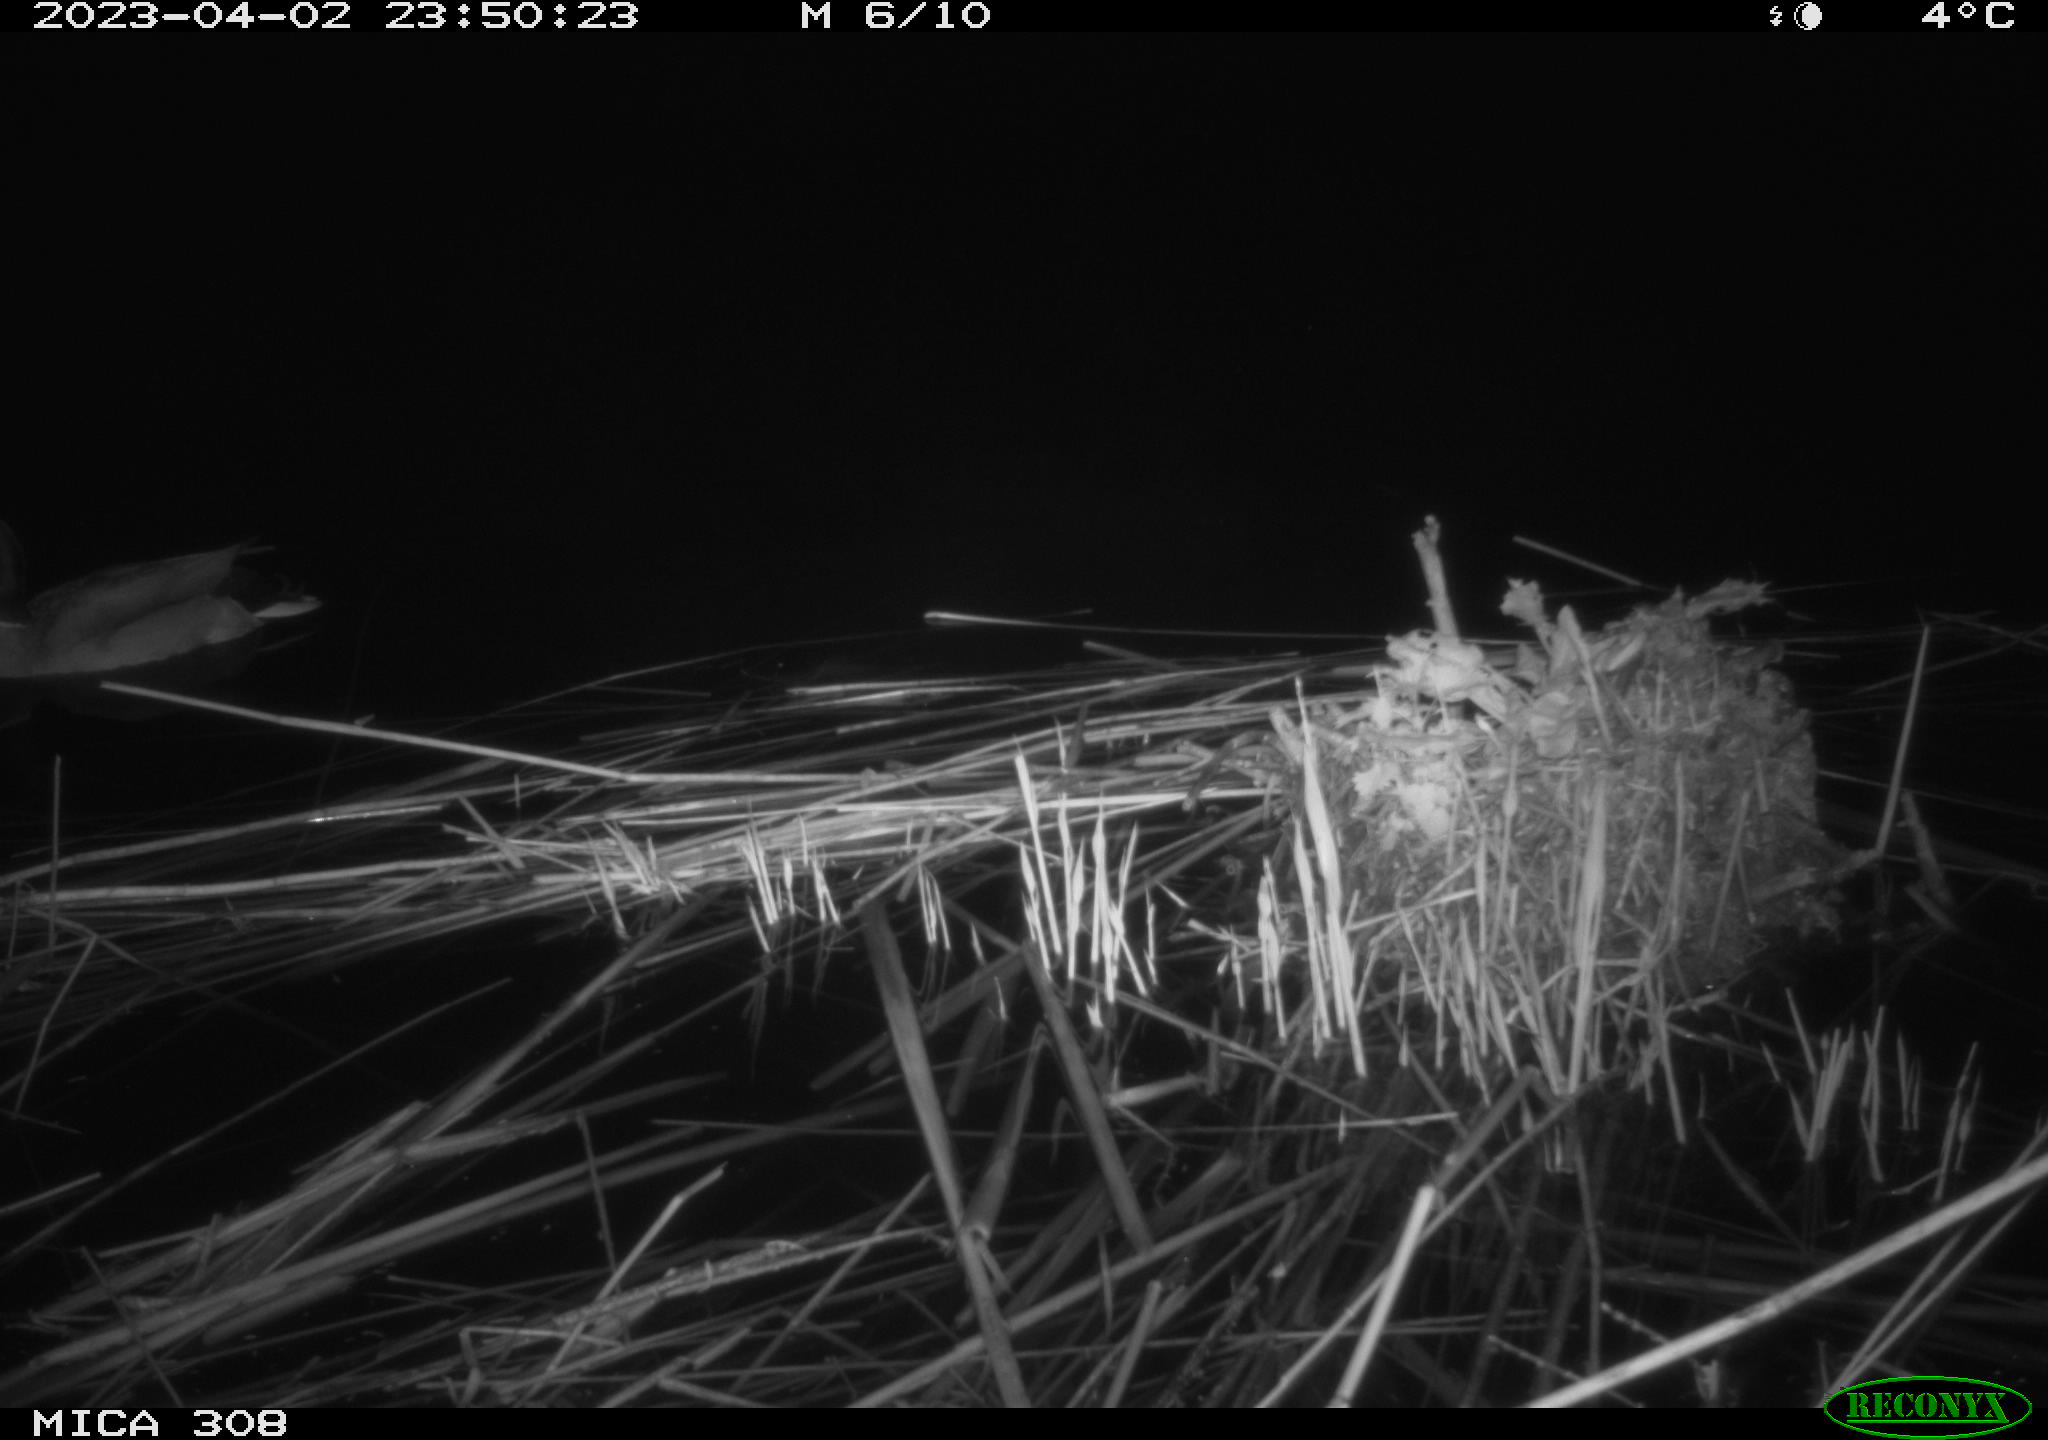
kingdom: Animalia
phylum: Chordata
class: Aves
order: Anseriformes
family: Anatidae
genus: Anas
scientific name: Anas
